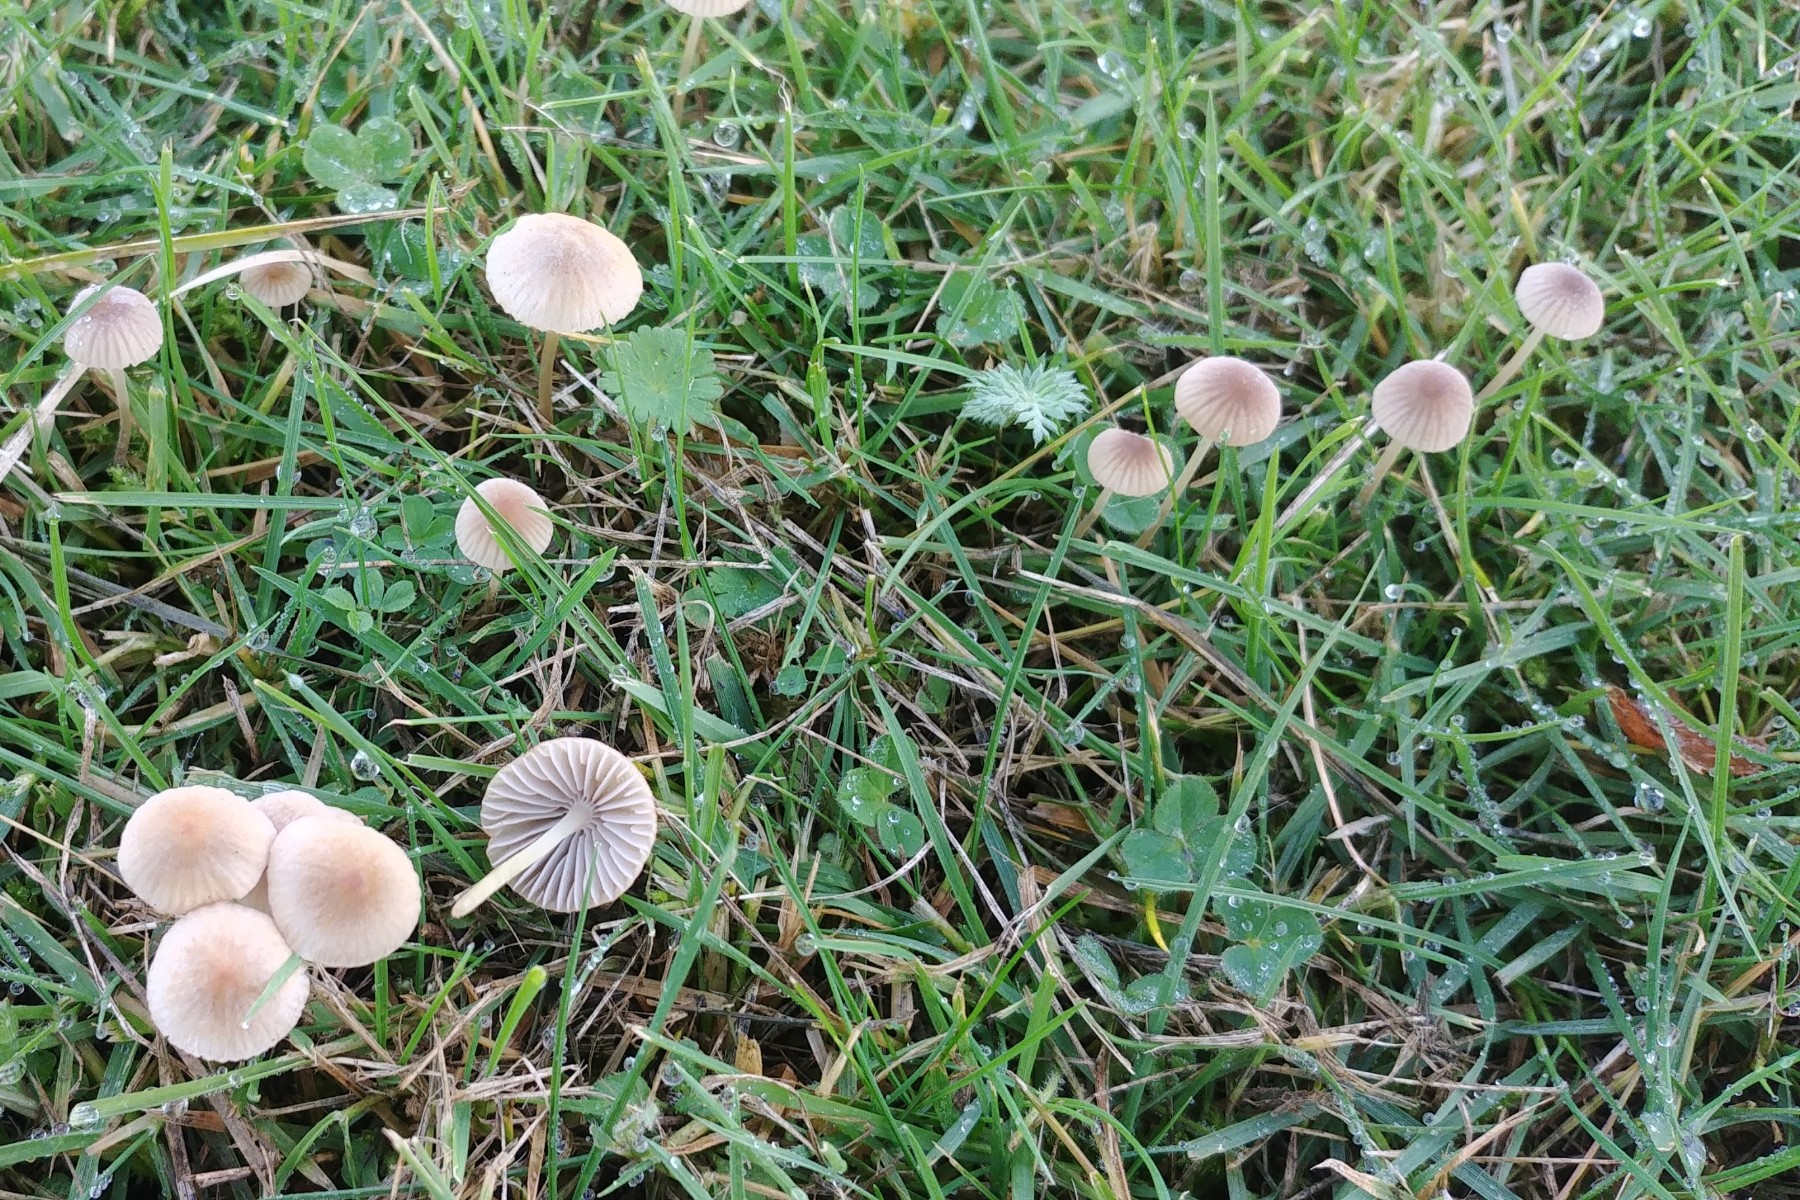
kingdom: Fungi
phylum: Basidiomycota
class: Agaricomycetes
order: Agaricales
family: Mycenaceae
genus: Mycena
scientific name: Mycena
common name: huesvamp
